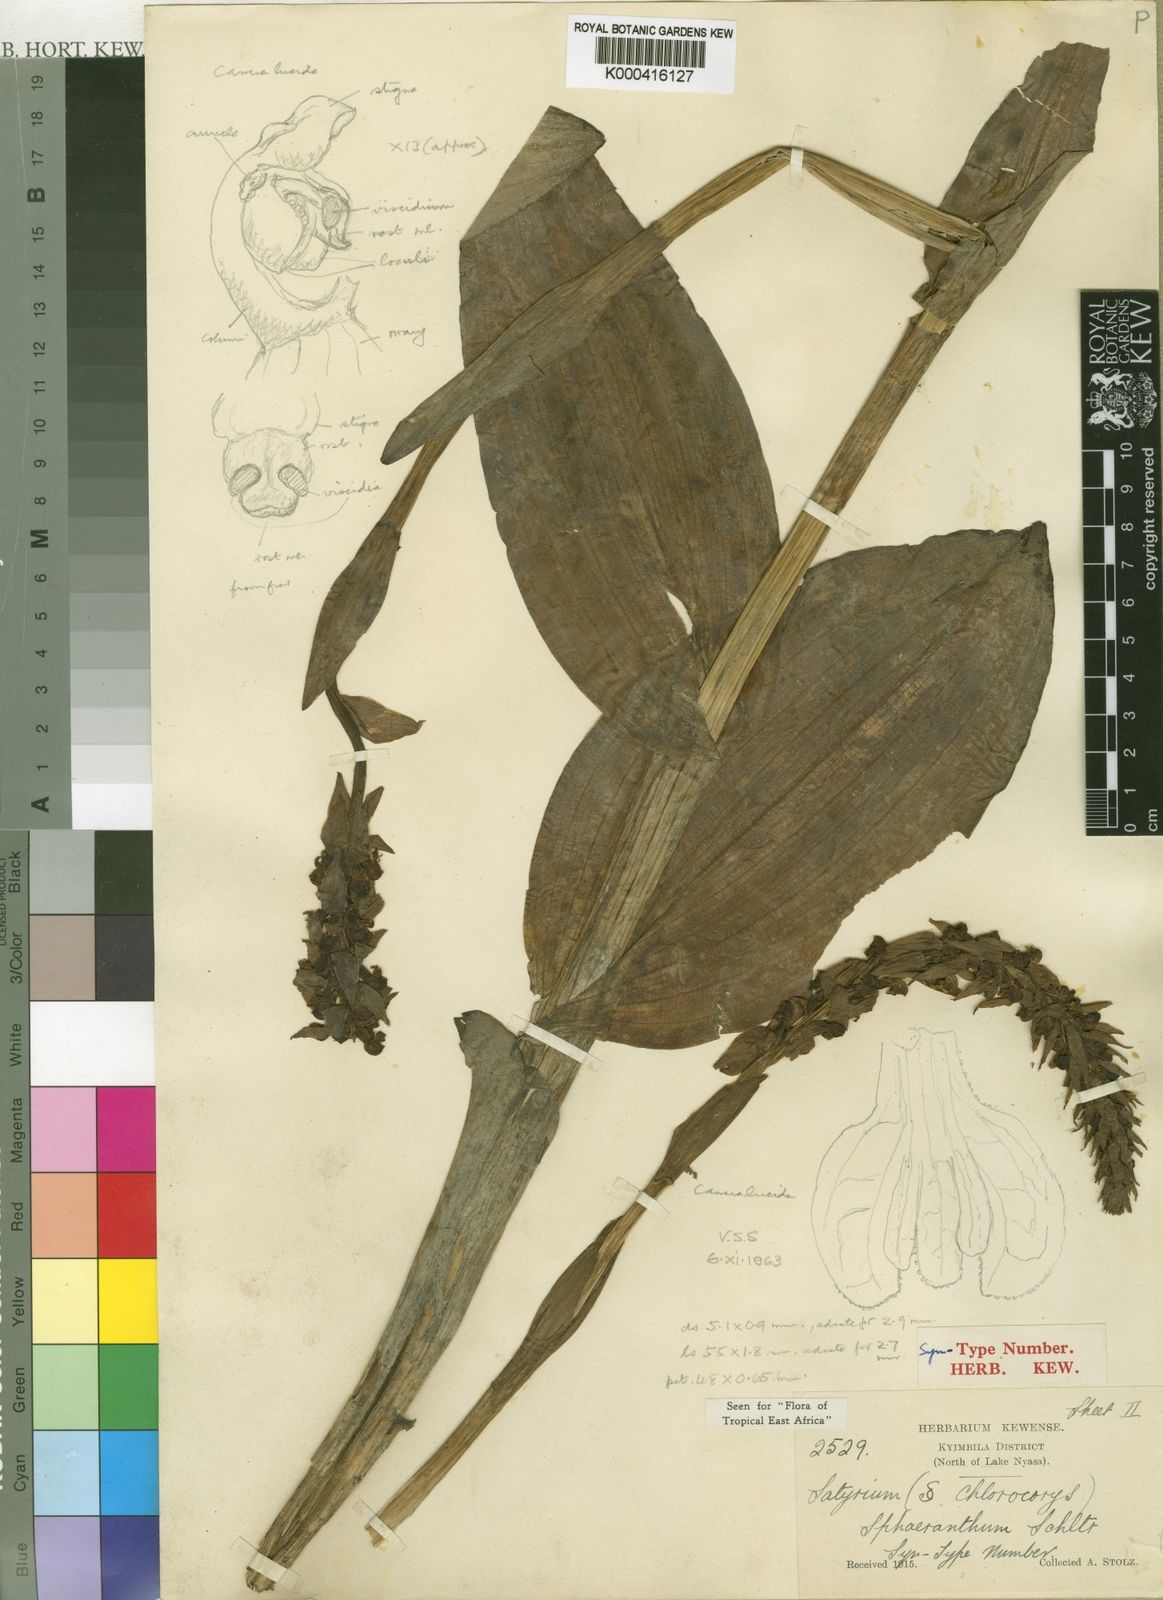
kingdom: Plantae
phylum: Tracheophyta
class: Liliopsida
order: Asparagales
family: Orchidaceae
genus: Satyrium
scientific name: Satyrium sphaeranthum
